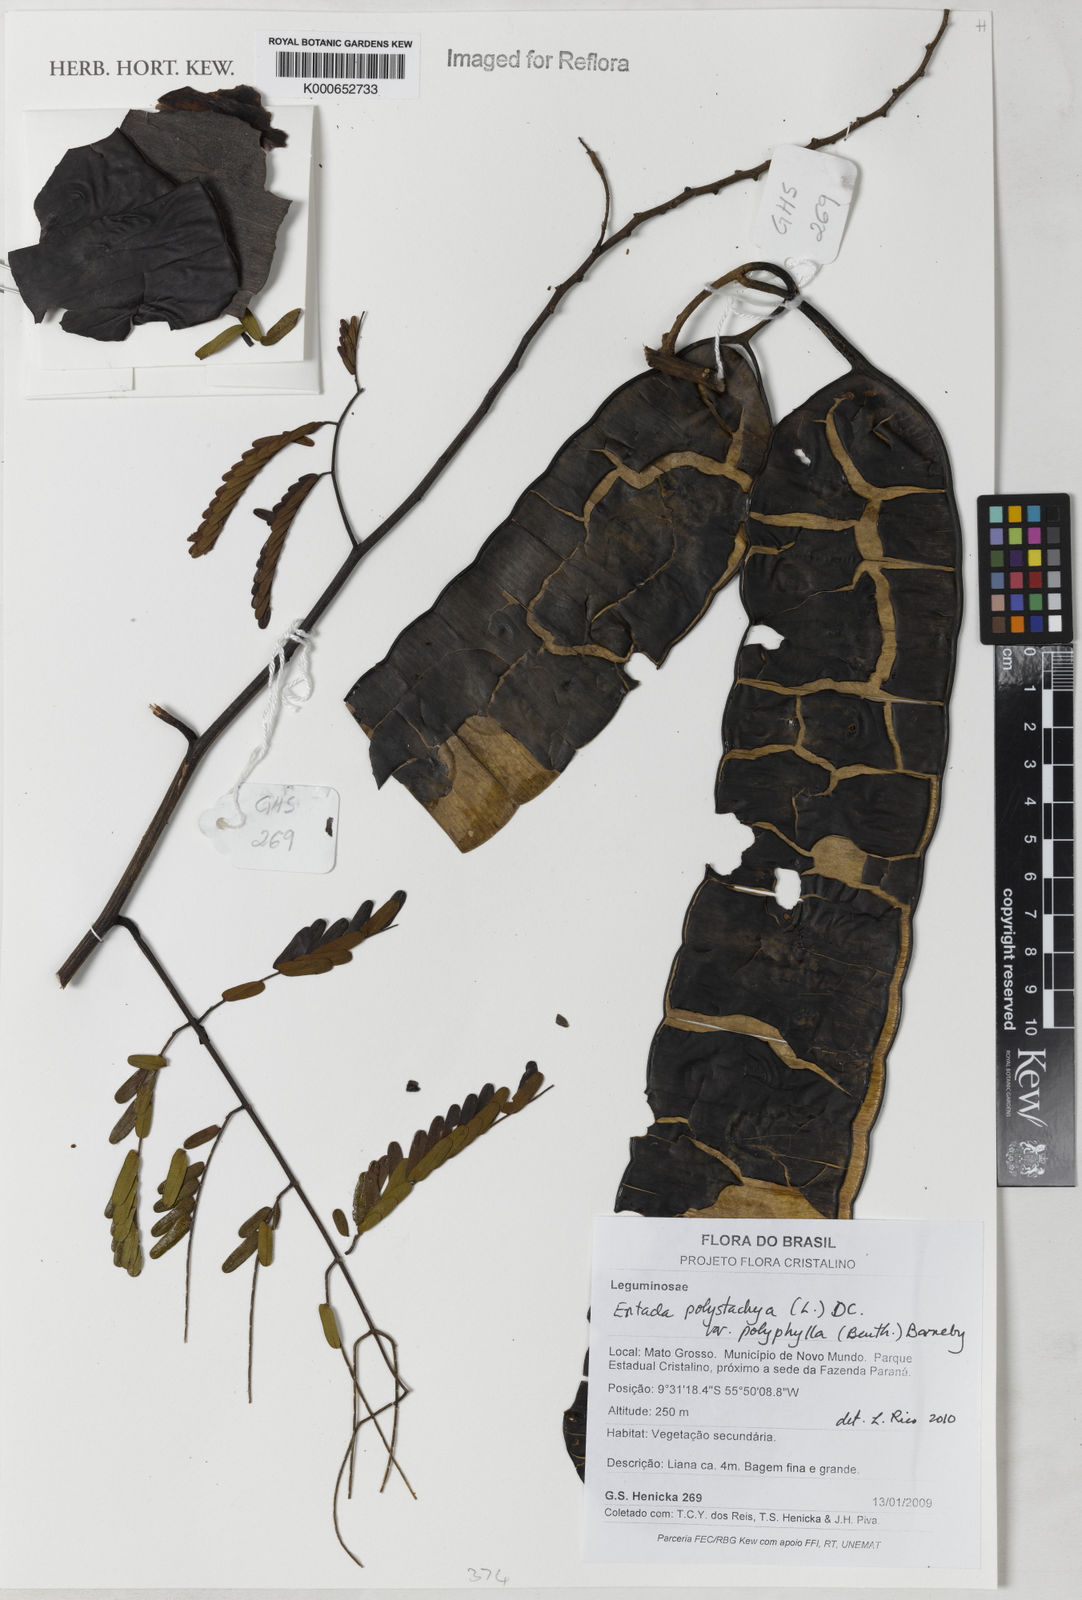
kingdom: Plantae
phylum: Tracheophyta
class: Magnoliopsida
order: Fabales
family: Fabaceae
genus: Entada
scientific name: Entada polyphylla
